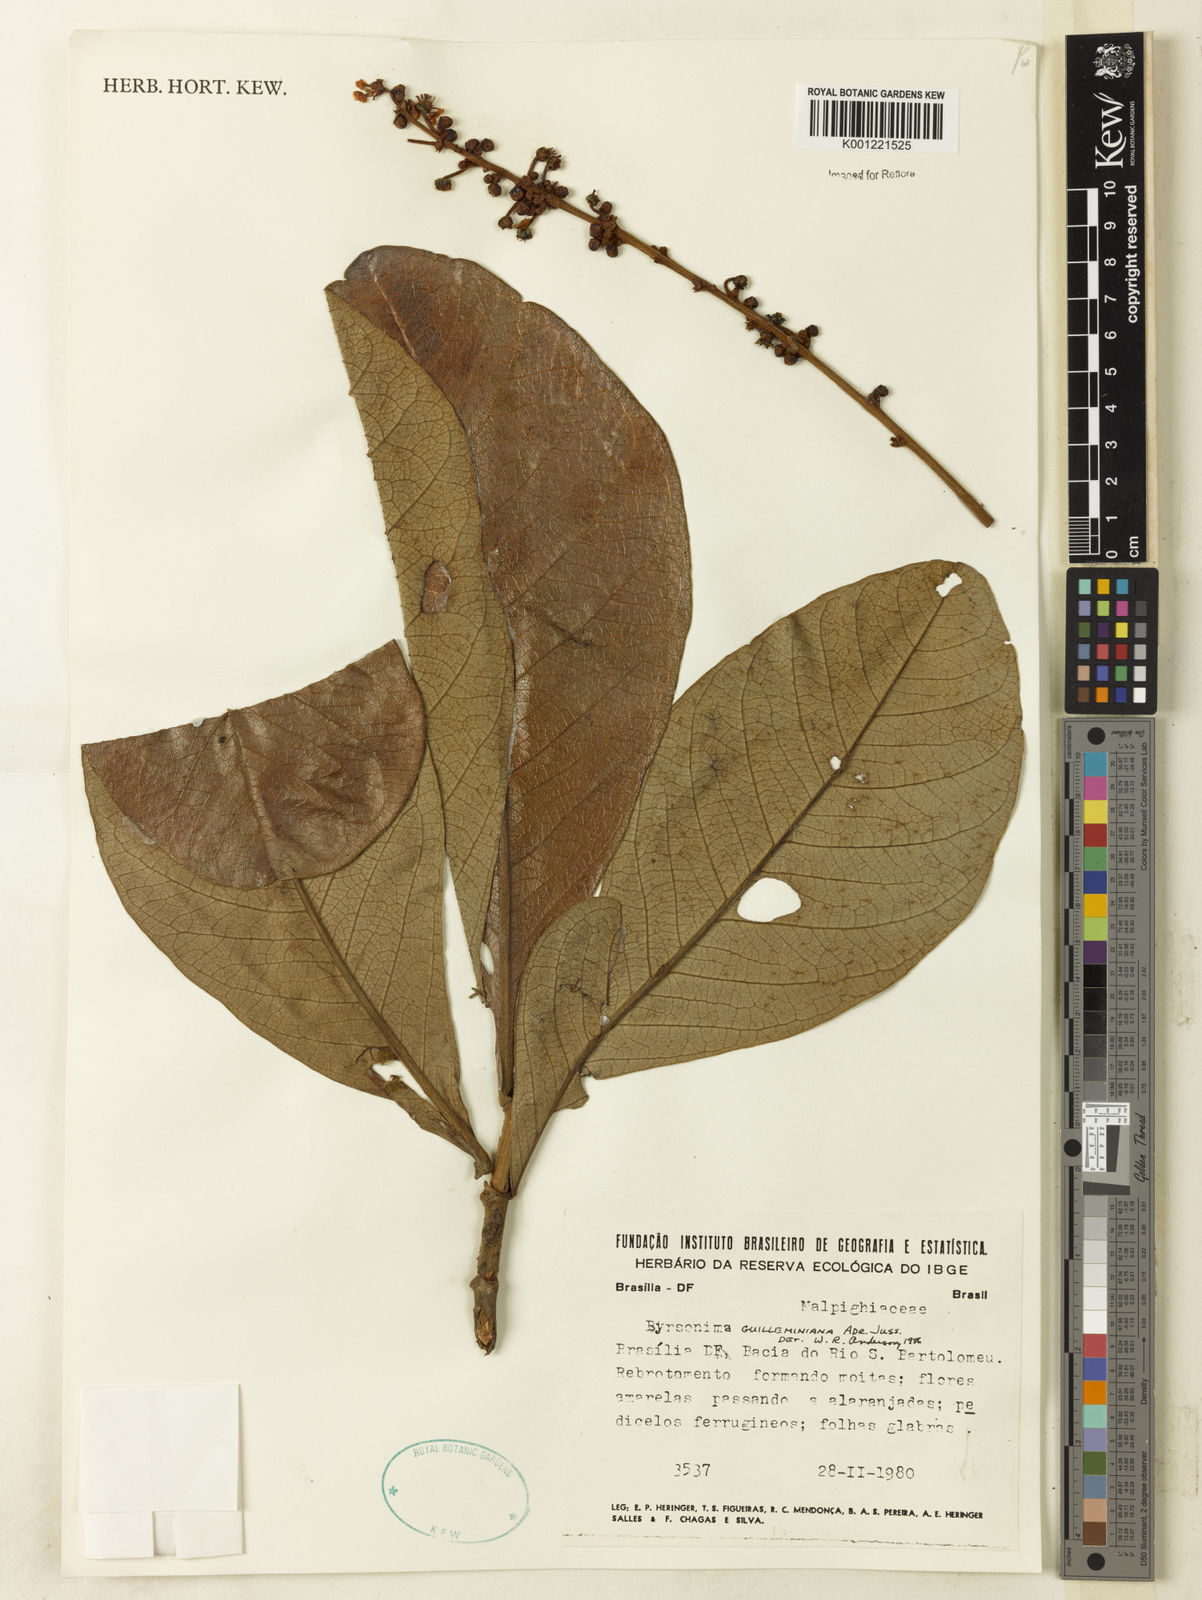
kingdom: Plantae
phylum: Tracheophyta
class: Magnoliopsida
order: Malpighiales
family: Malpighiaceae
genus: Byrsonima
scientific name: Byrsonima guilleminiana
